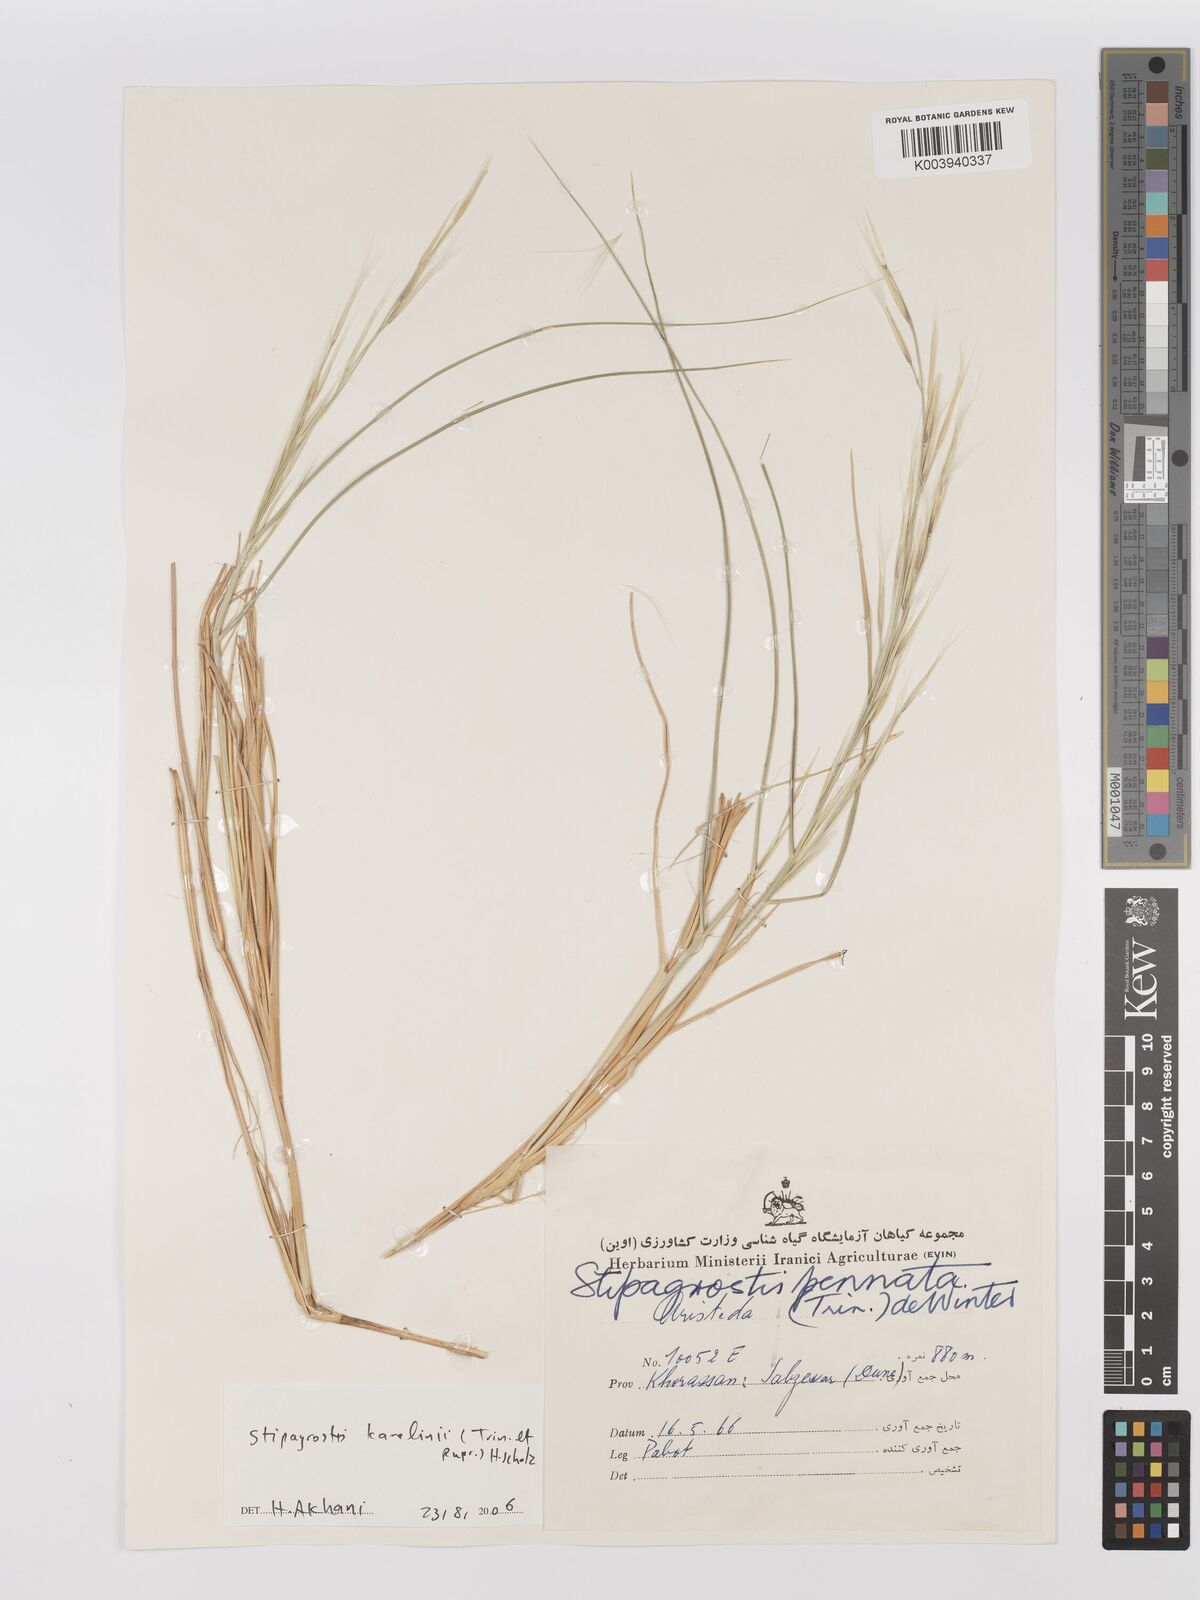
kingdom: Plantae
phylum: Tracheophyta
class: Liliopsida
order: Poales
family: Poaceae
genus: Stipagrostis
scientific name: Stipagrostis karelinii
